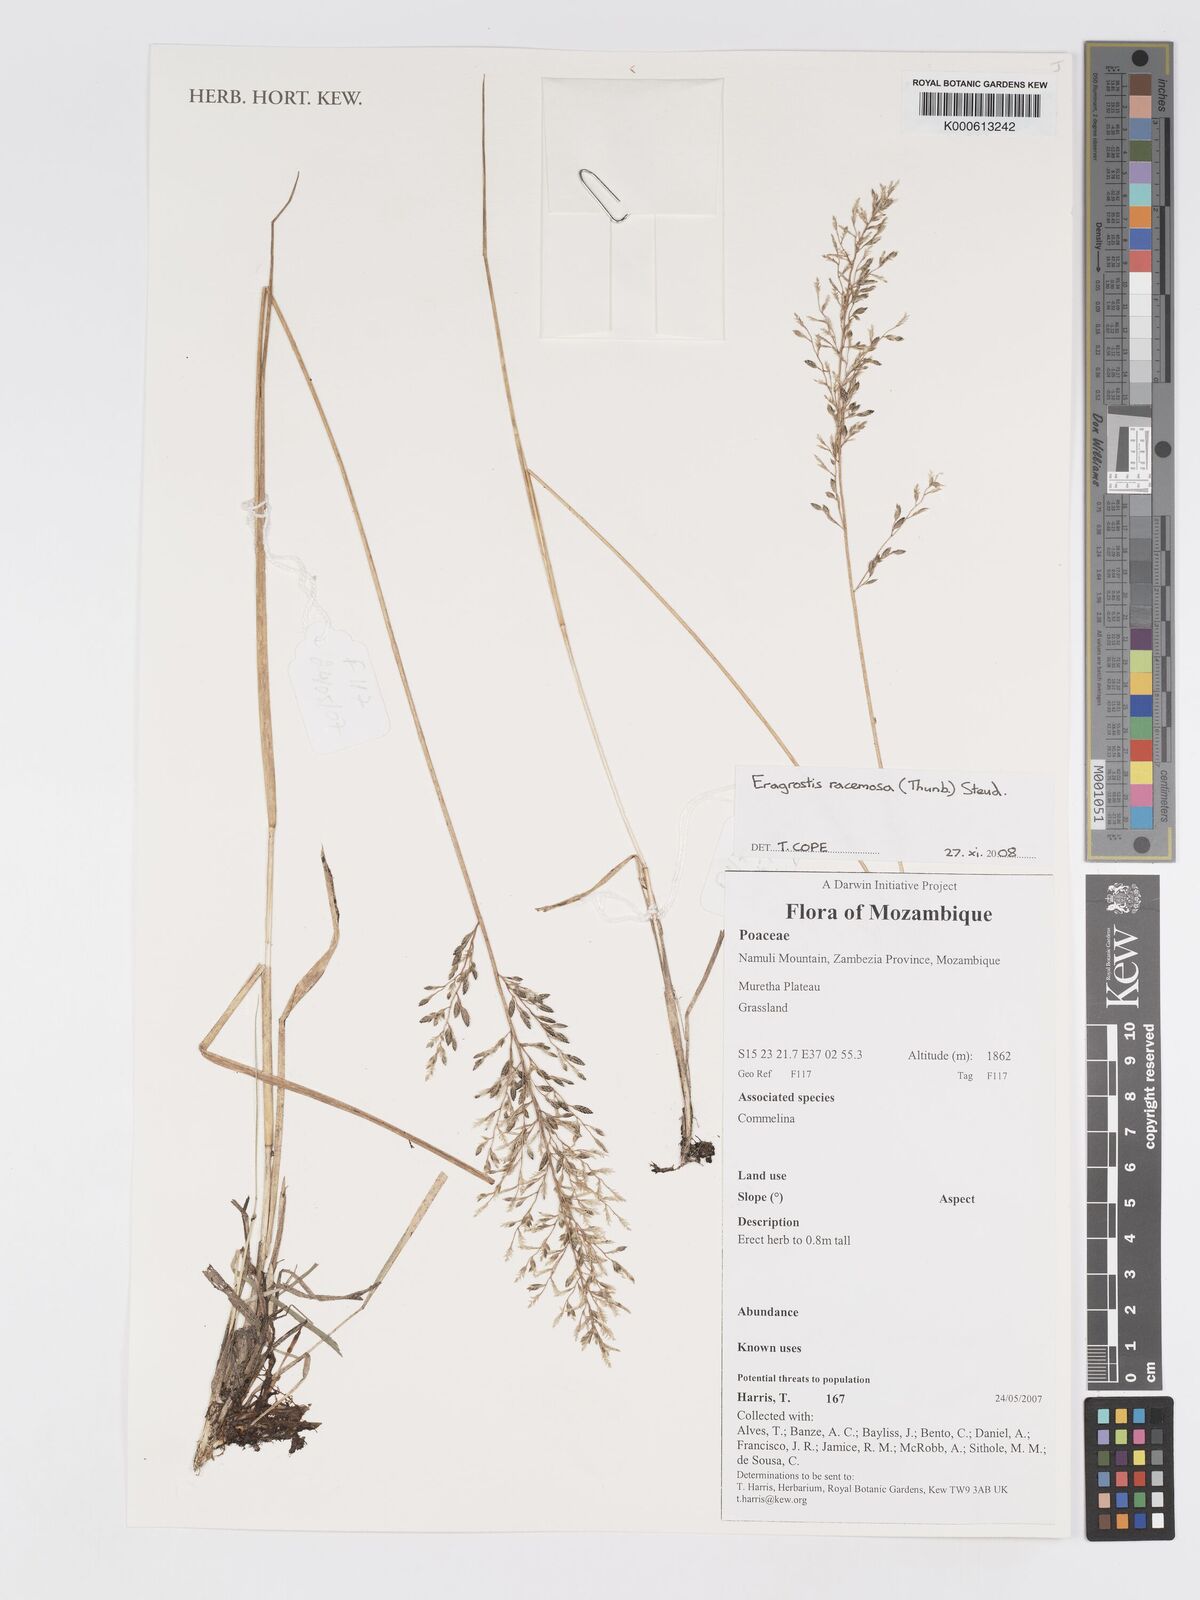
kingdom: Plantae
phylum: Tracheophyta
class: Liliopsida
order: Poales
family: Poaceae
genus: Eragrostis
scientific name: Eragrostis racemosa
